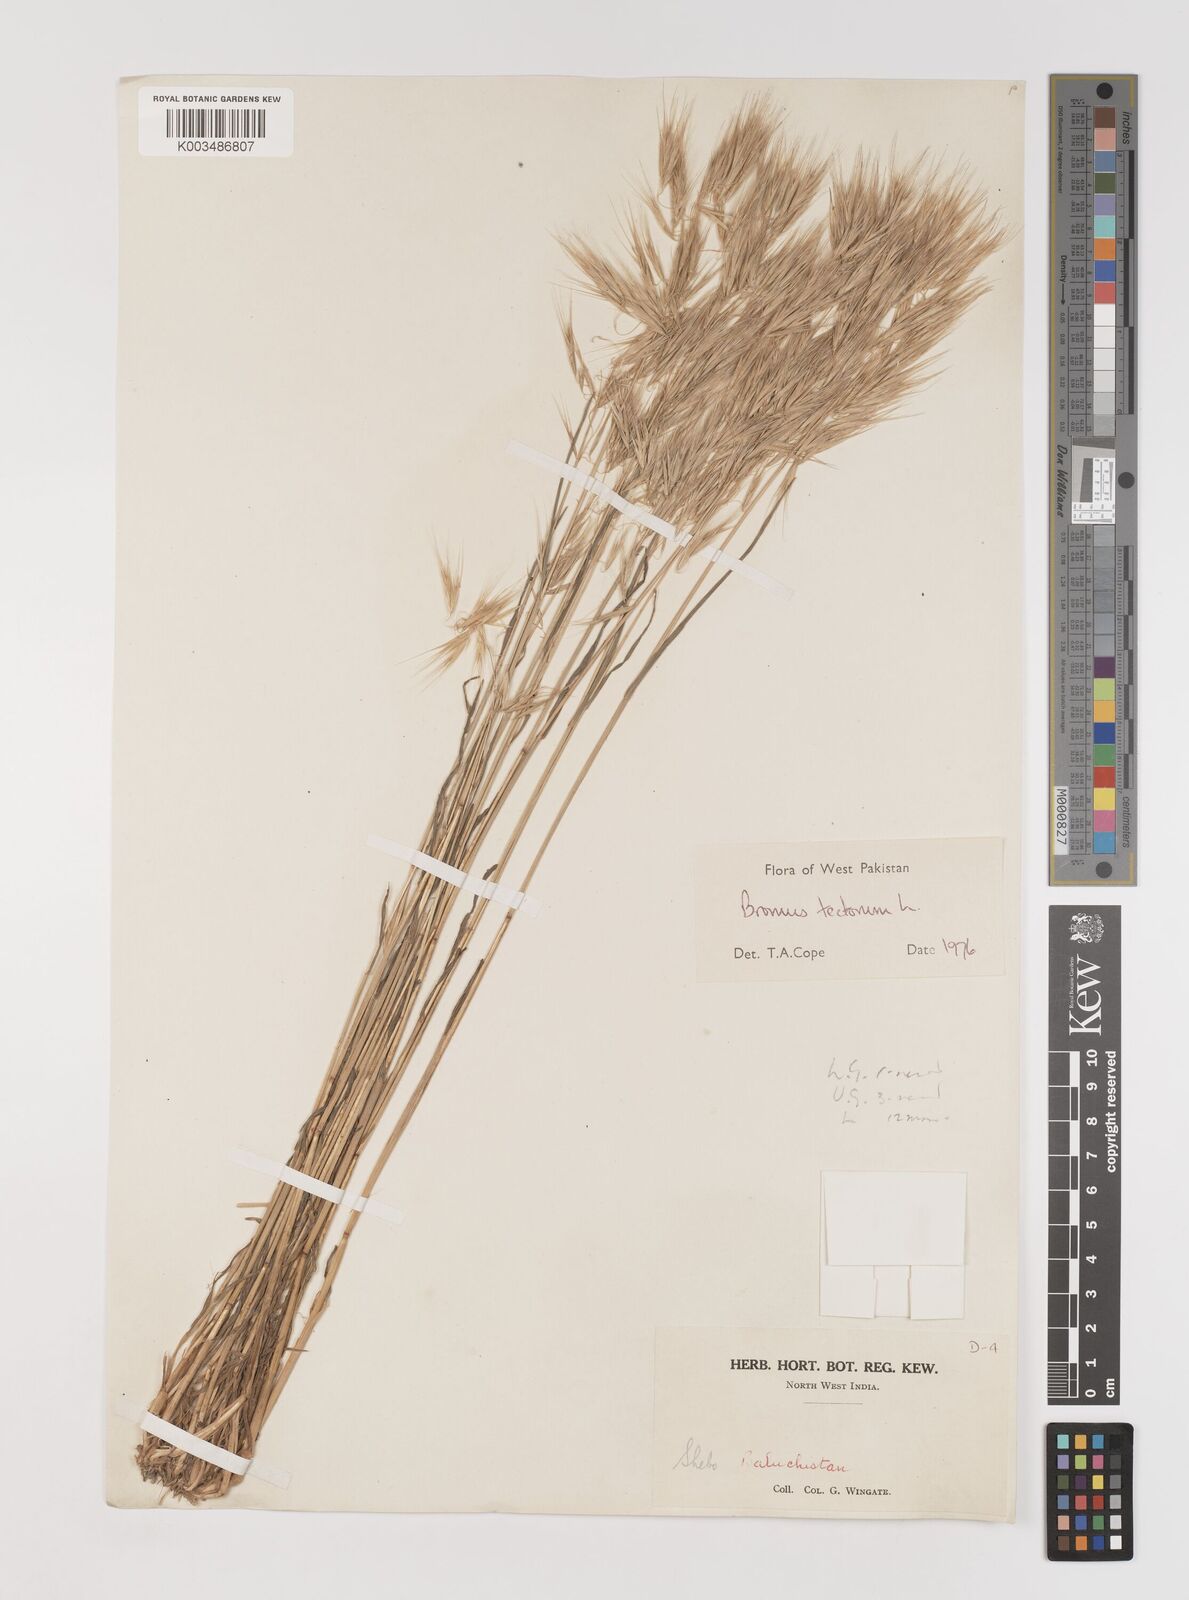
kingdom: Plantae
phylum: Tracheophyta
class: Liliopsida
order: Poales
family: Poaceae
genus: Bromus
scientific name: Bromus tectorum
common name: Cheatgrass
